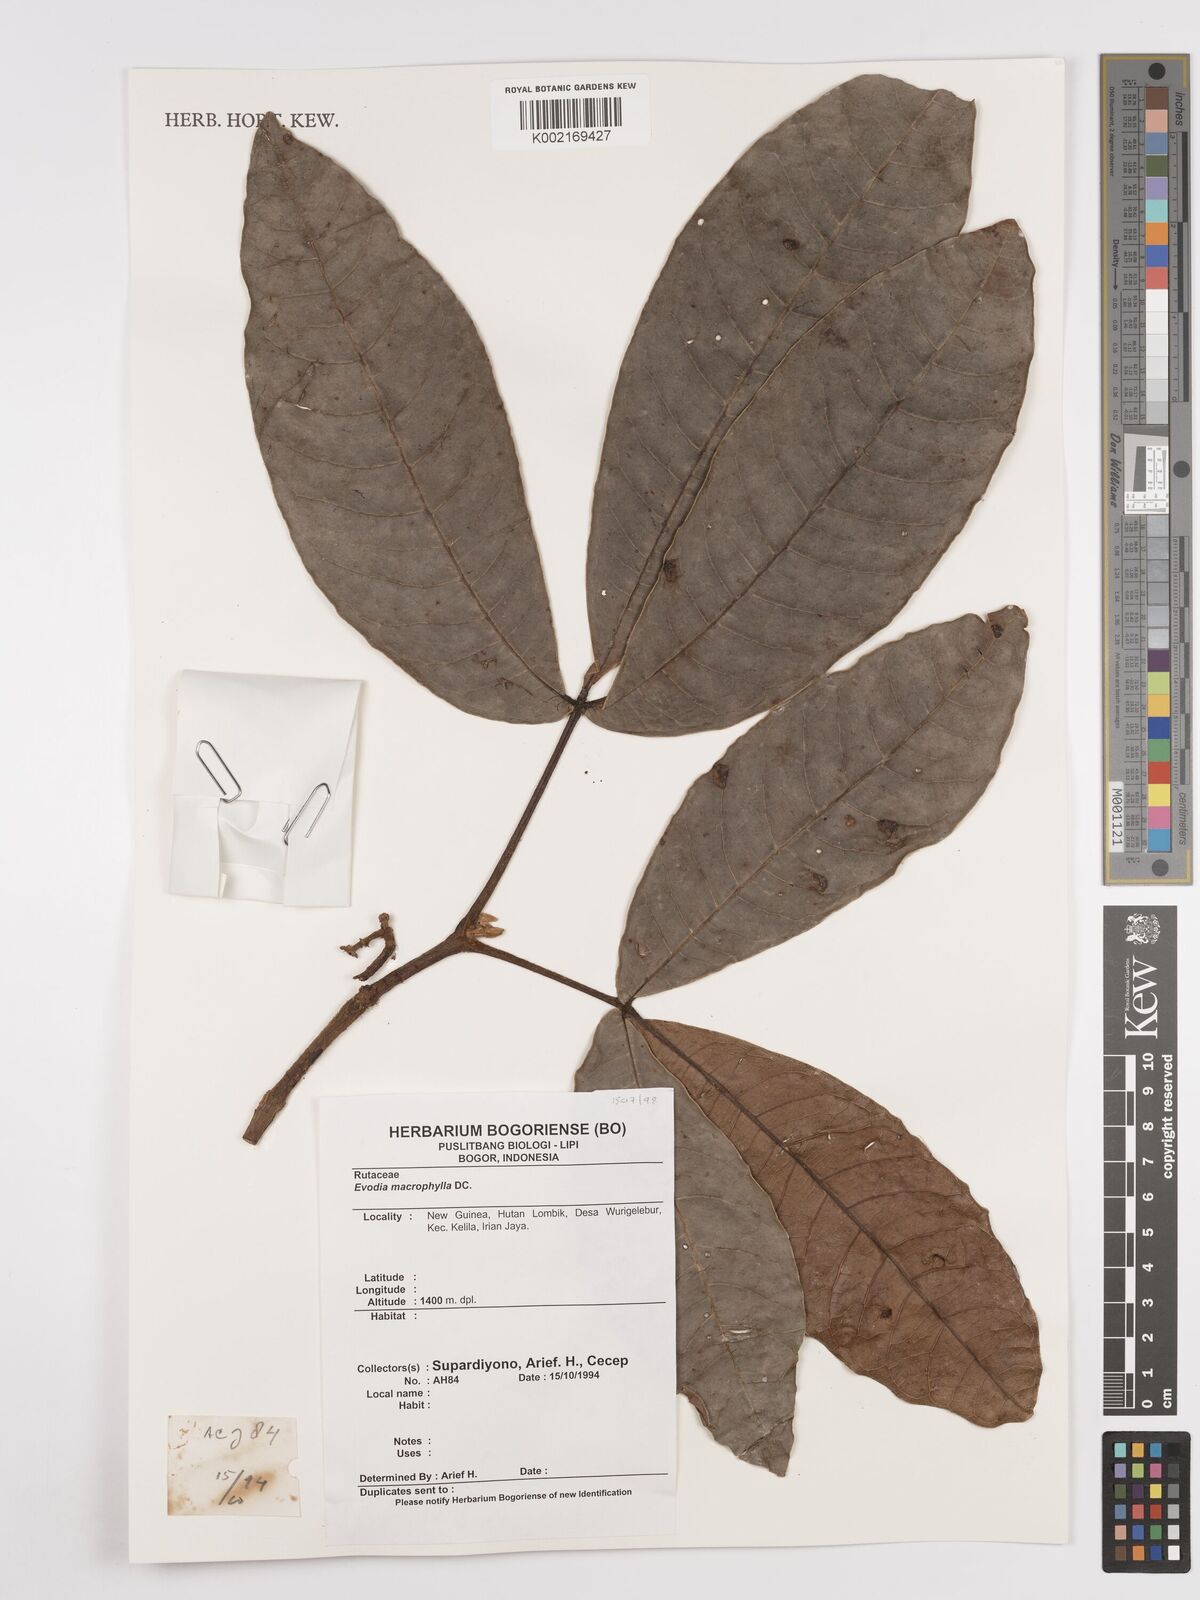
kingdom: Plantae
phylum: Tracheophyta
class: Magnoliopsida
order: Sapindales
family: Rutaceae
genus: Euodia
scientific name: Euodia
